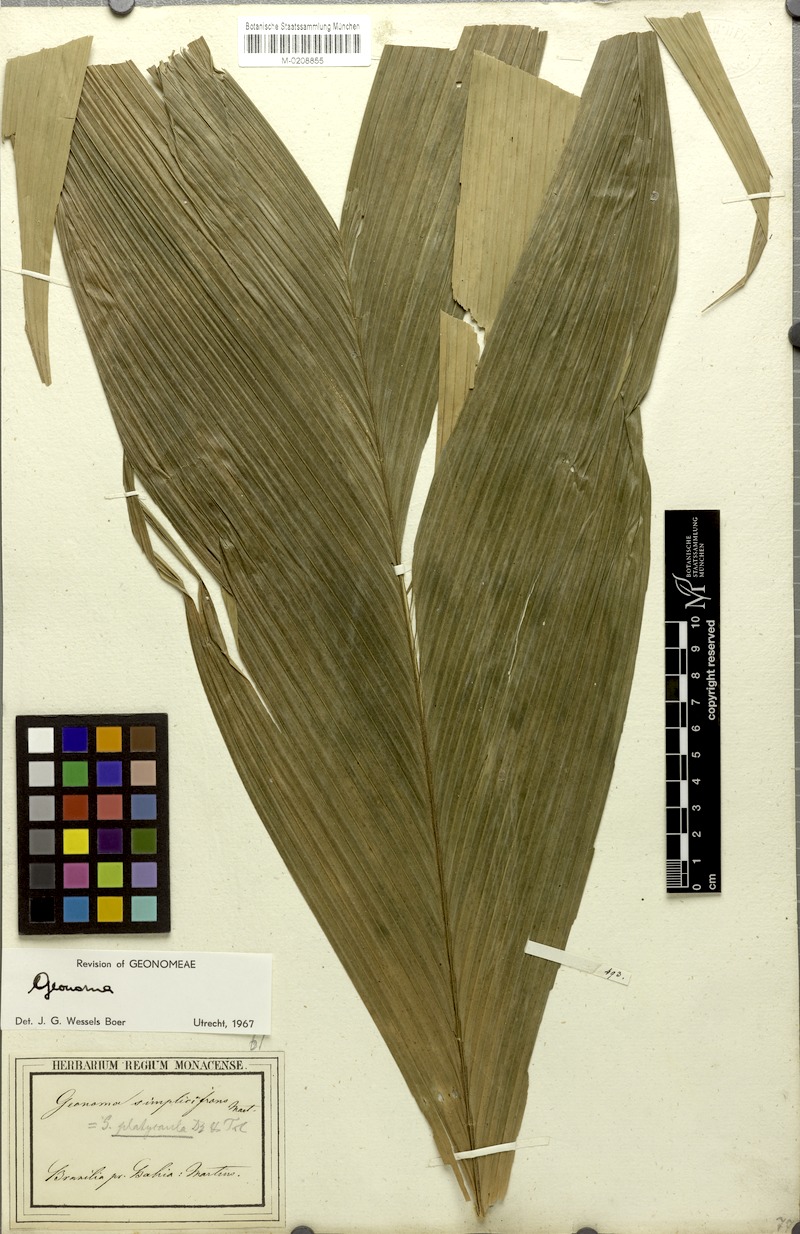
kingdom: Plantae
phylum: Tracheophyta
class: Liliopsida
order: Arecales
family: Arecaceae
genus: Geonoma
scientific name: Geonoma pohliana
